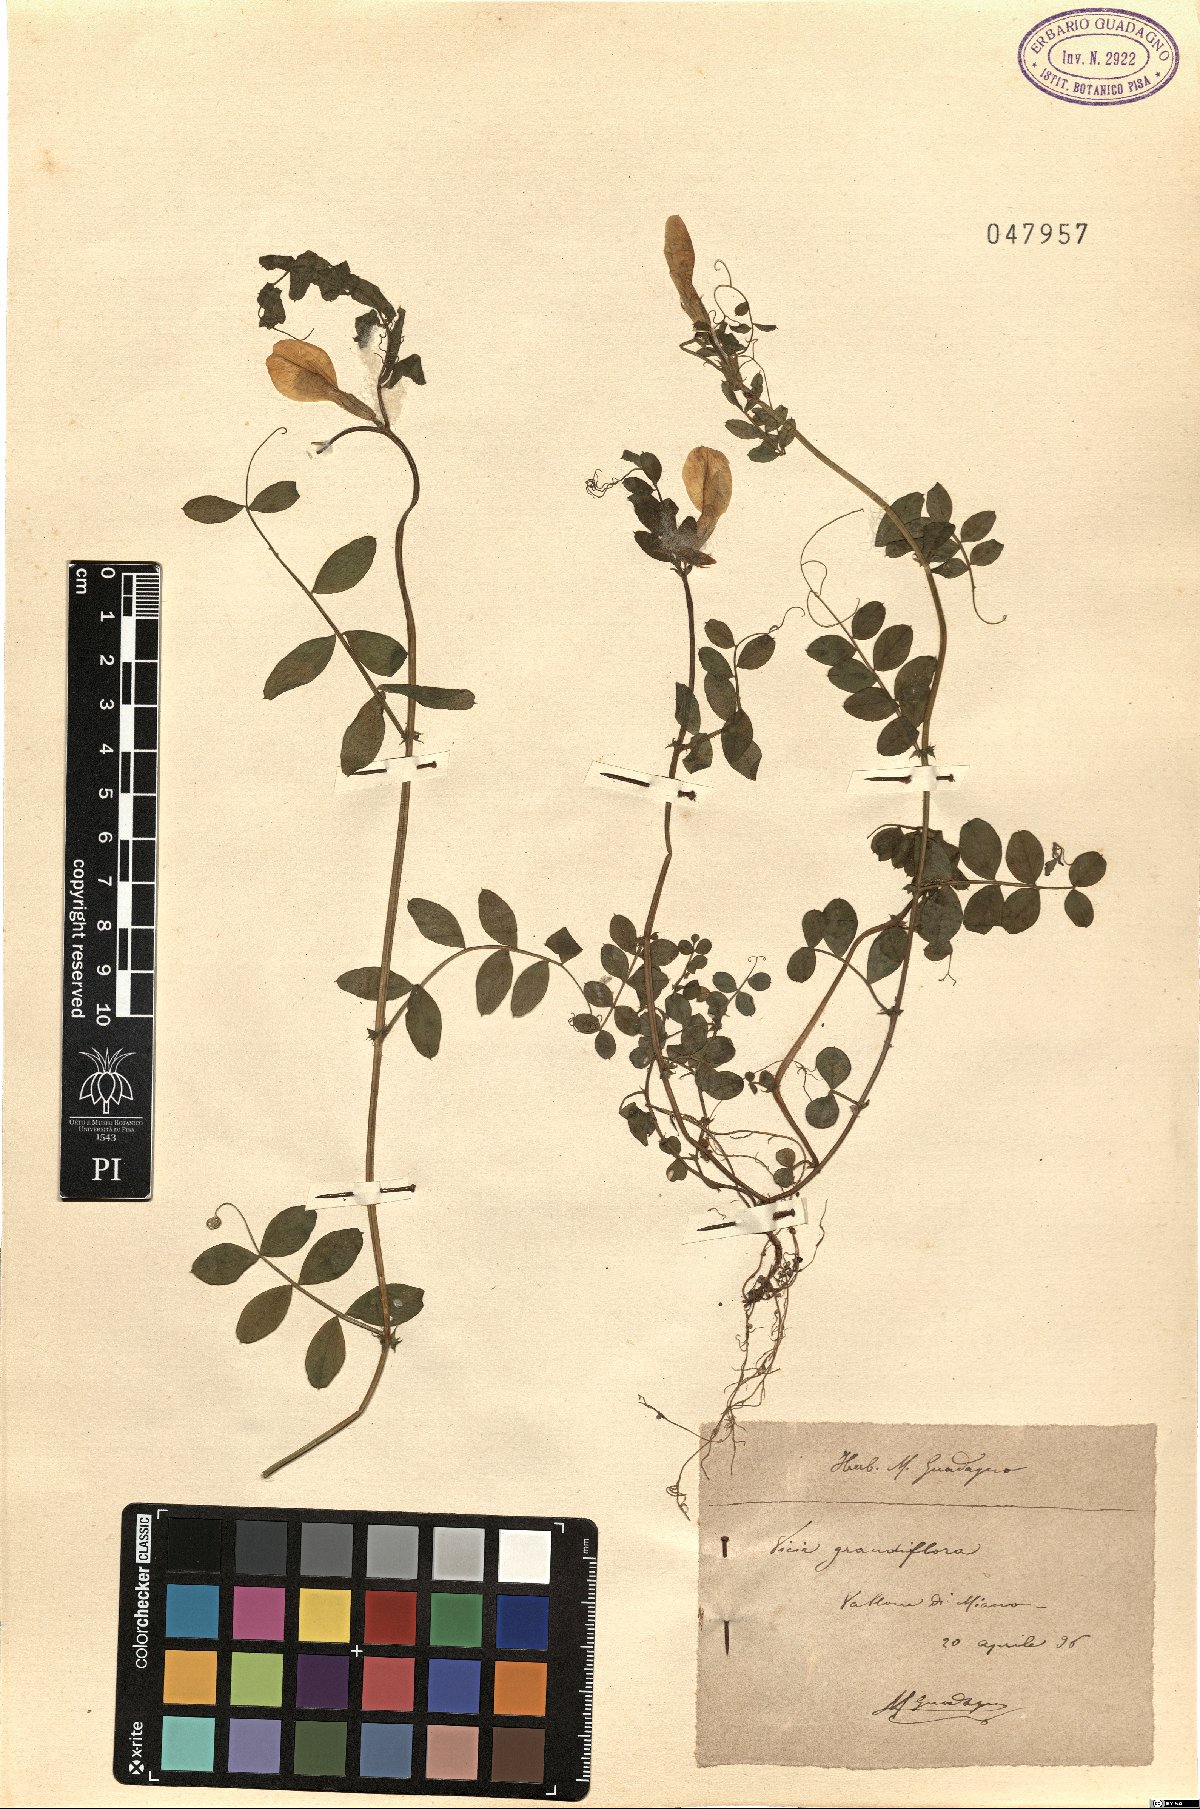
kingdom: Plantae
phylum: Tracheophyta
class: Magnoliopsida
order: Fabales
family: Fabaceae
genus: Vicia
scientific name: Vicia grandiflora
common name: Large yellow vetch
